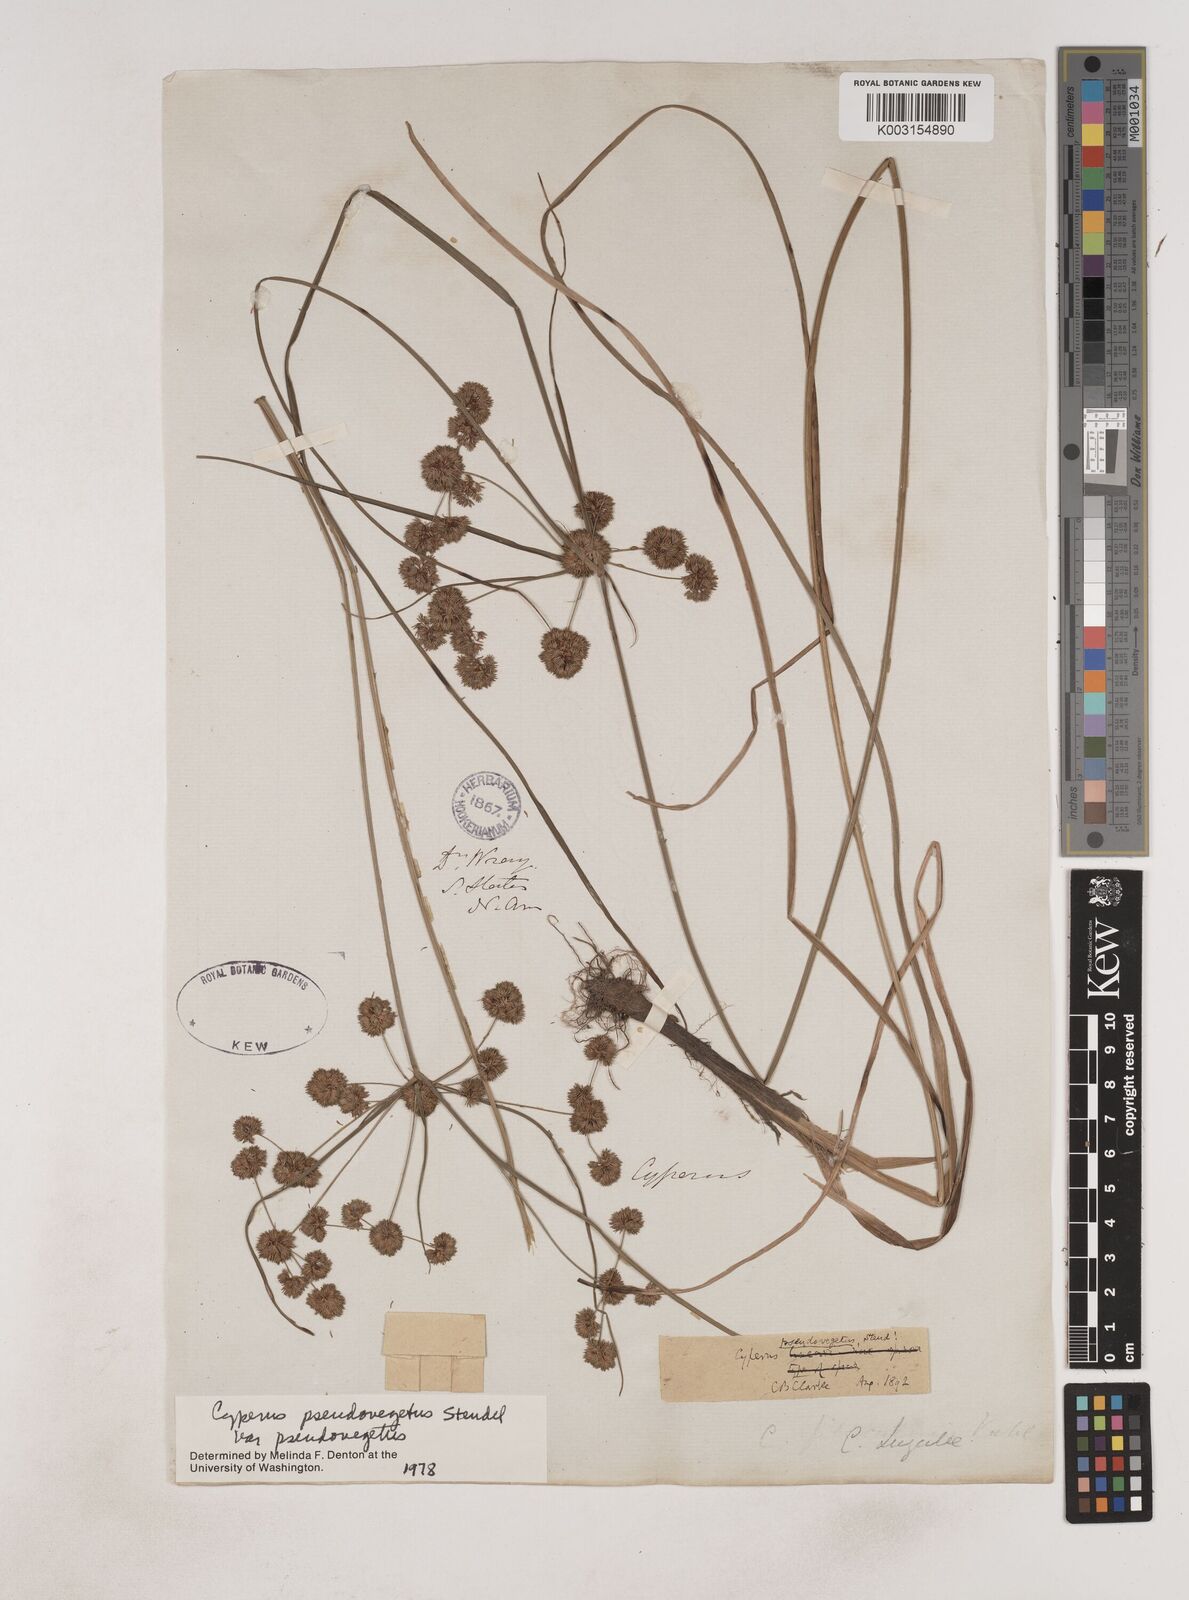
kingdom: Plantae
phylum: Tracheophyta
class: Liliopsida
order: Poales
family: Cyperaceae
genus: Cyperus
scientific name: Cyperus pseudovegetus
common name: Marsh flat sedge
